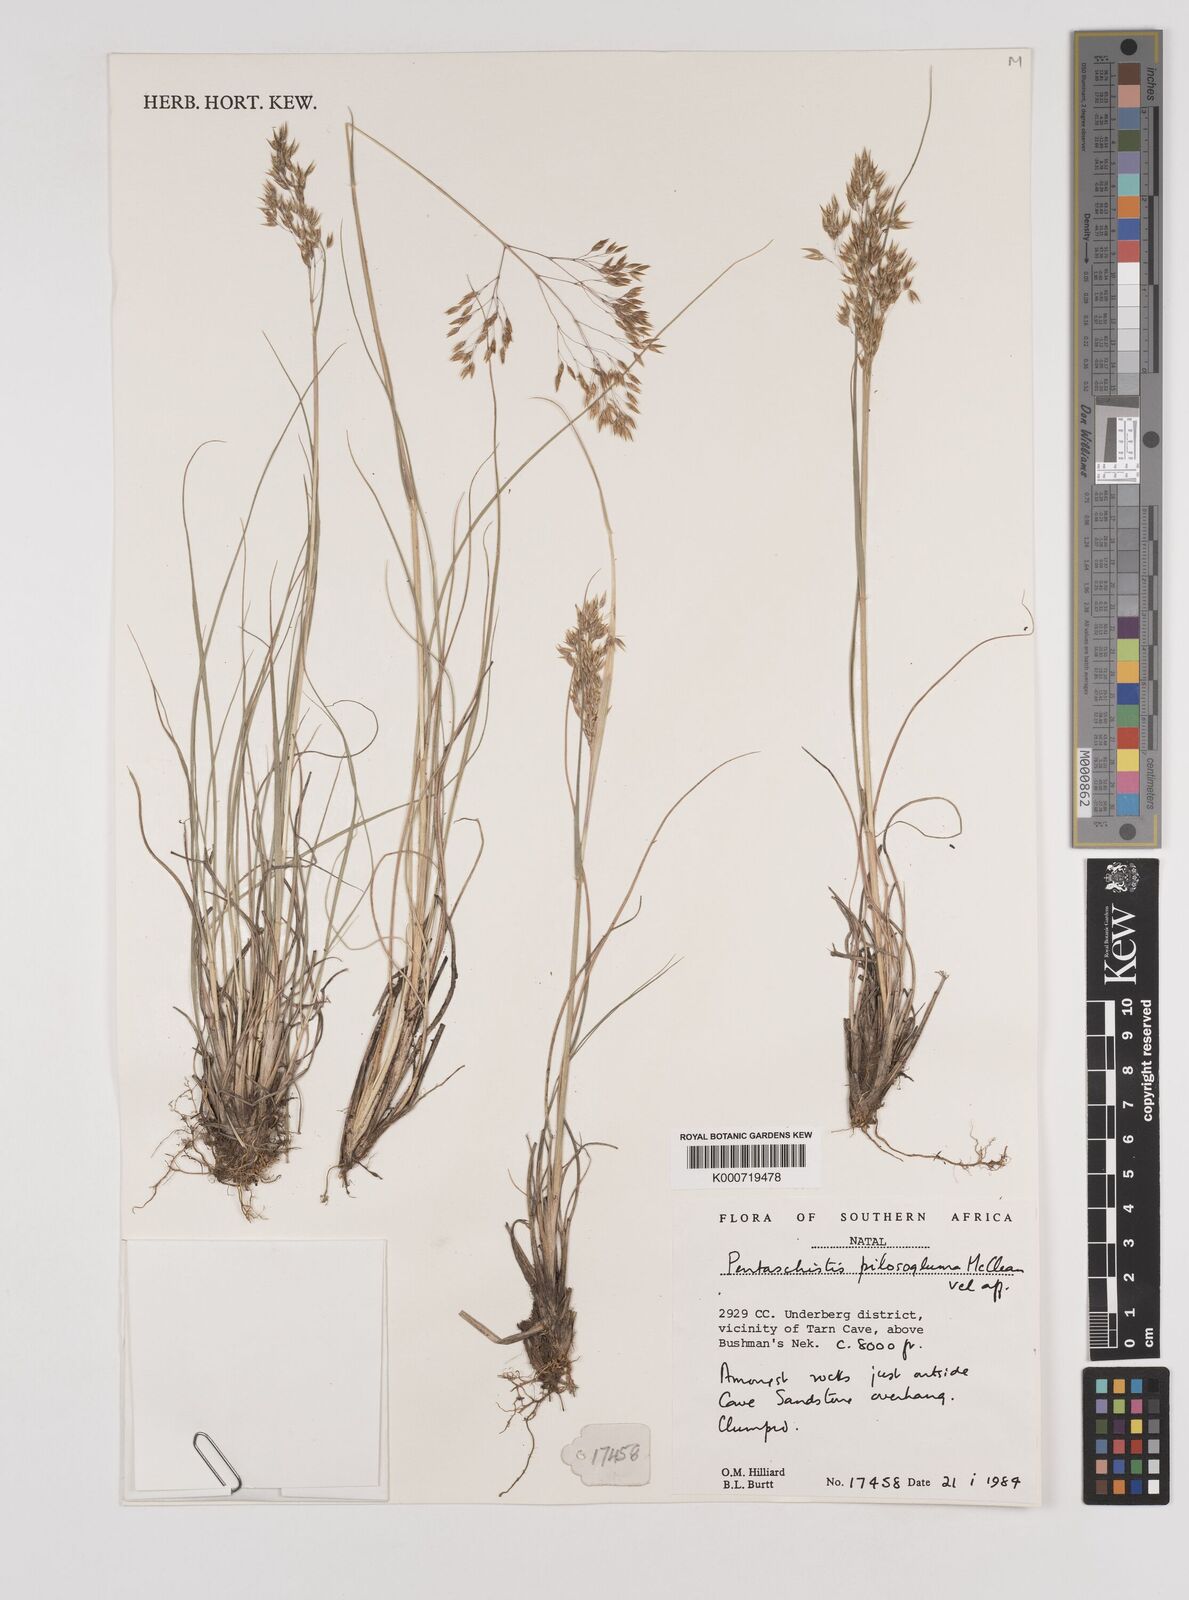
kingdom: Plantae
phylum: Tracheophyta
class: Liliopsida
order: Poales
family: Poaceae
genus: Pentameris
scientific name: Pentameris aurea
